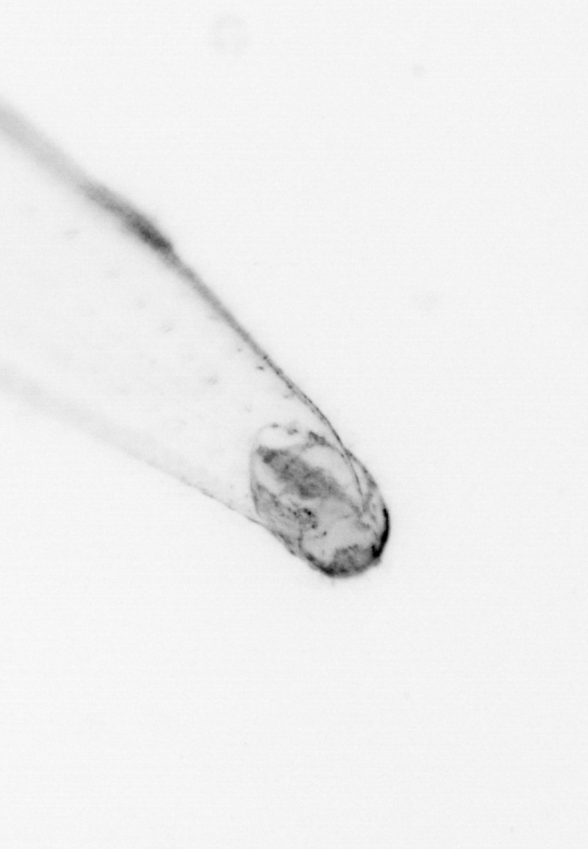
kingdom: Animalia
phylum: Chaetognatha
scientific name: Chaetognatha
